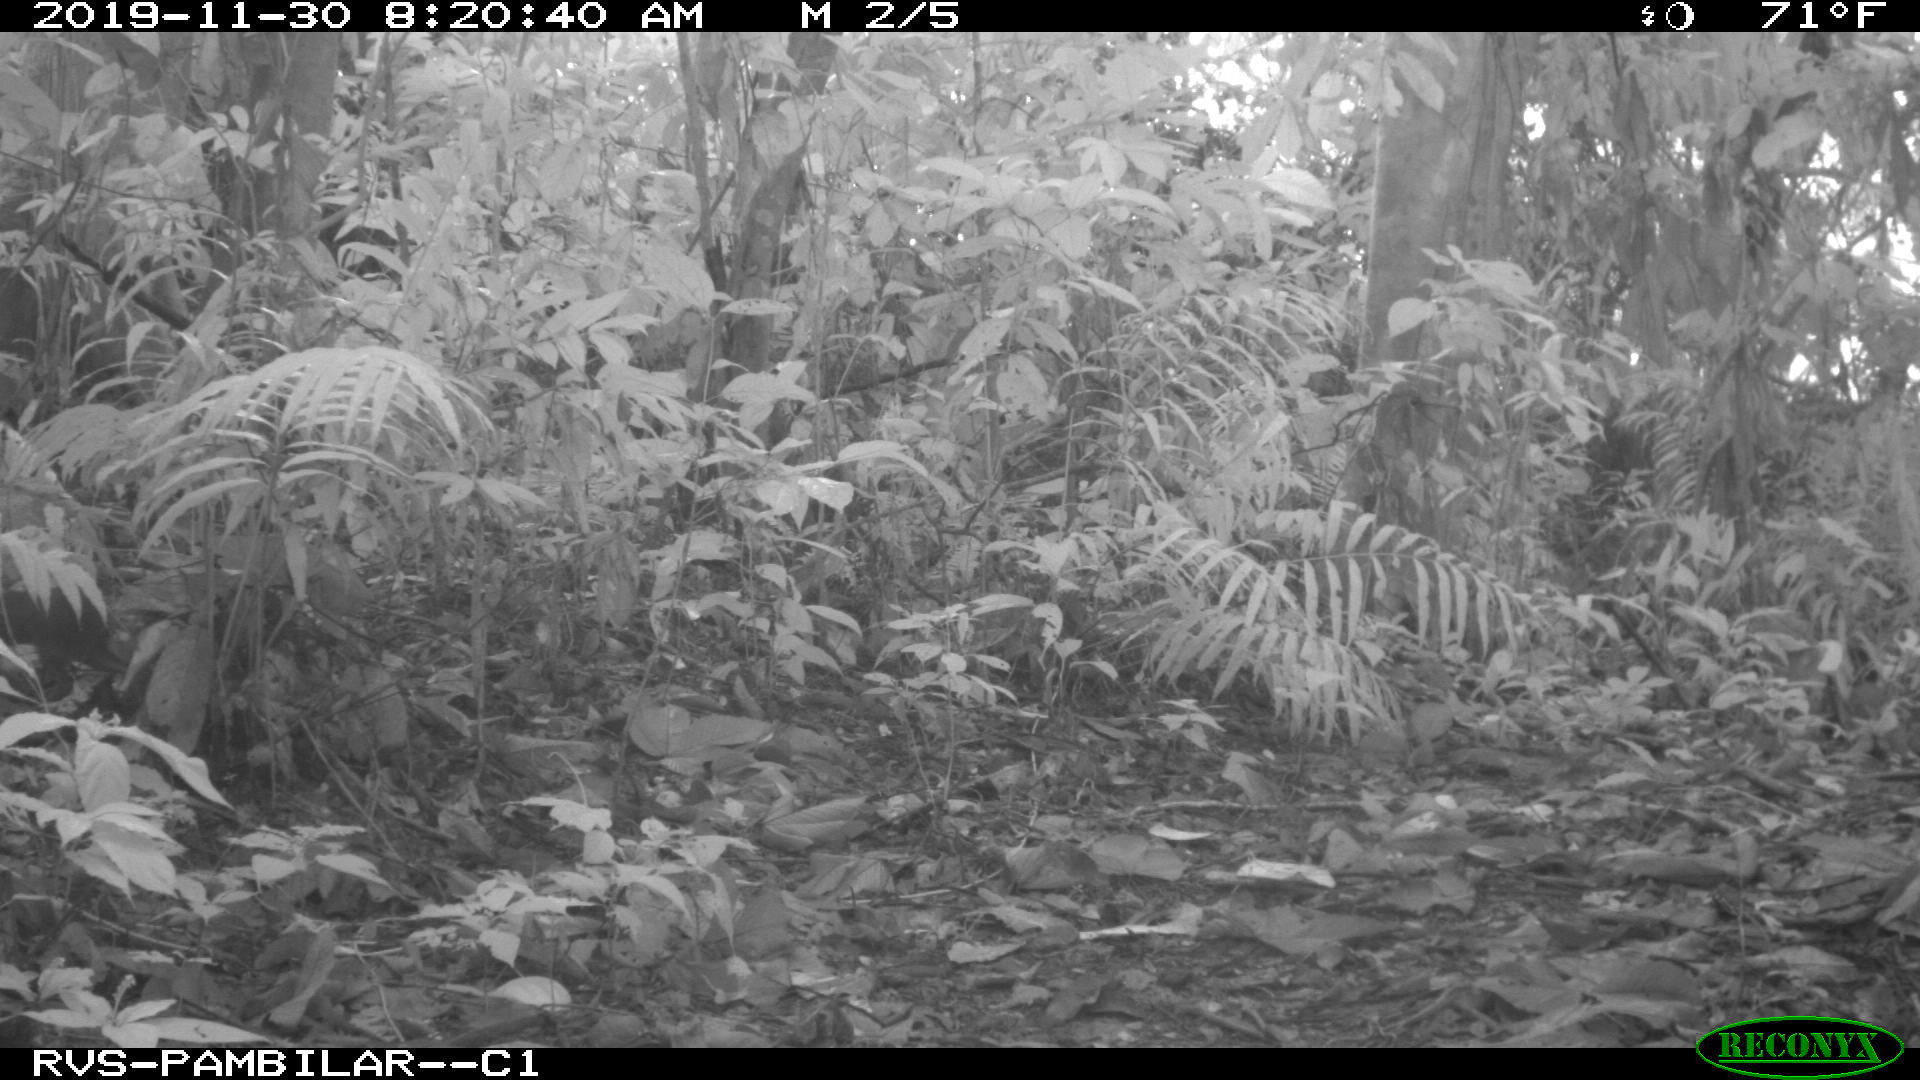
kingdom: Animalia
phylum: Chordata
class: Mammalia
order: Rodentia
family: Dasyproctidae
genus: Dasyprocta
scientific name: Dasyprocta punctata
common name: Central american agouti
